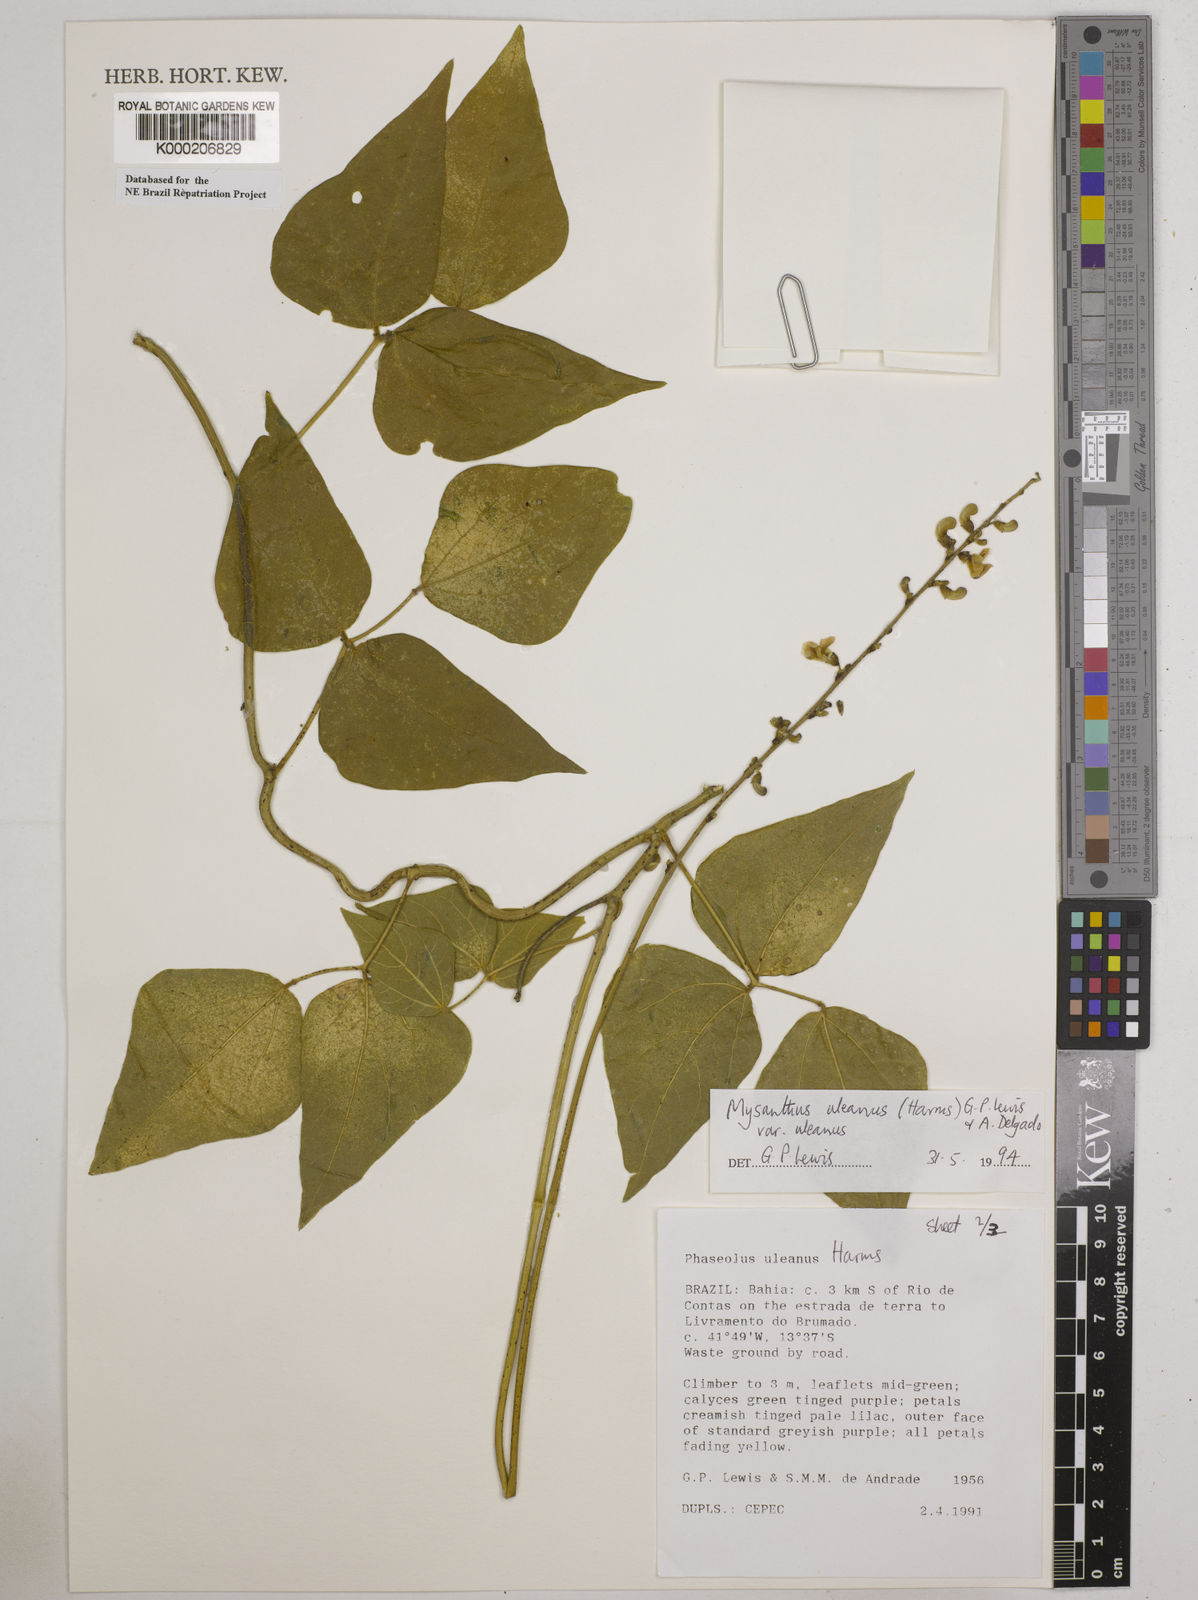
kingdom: Plantae
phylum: Tracheophyta
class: Magnoliopsida
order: Fabales
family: Fabaceae
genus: Mysanthus
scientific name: Mysanthus uleanus
